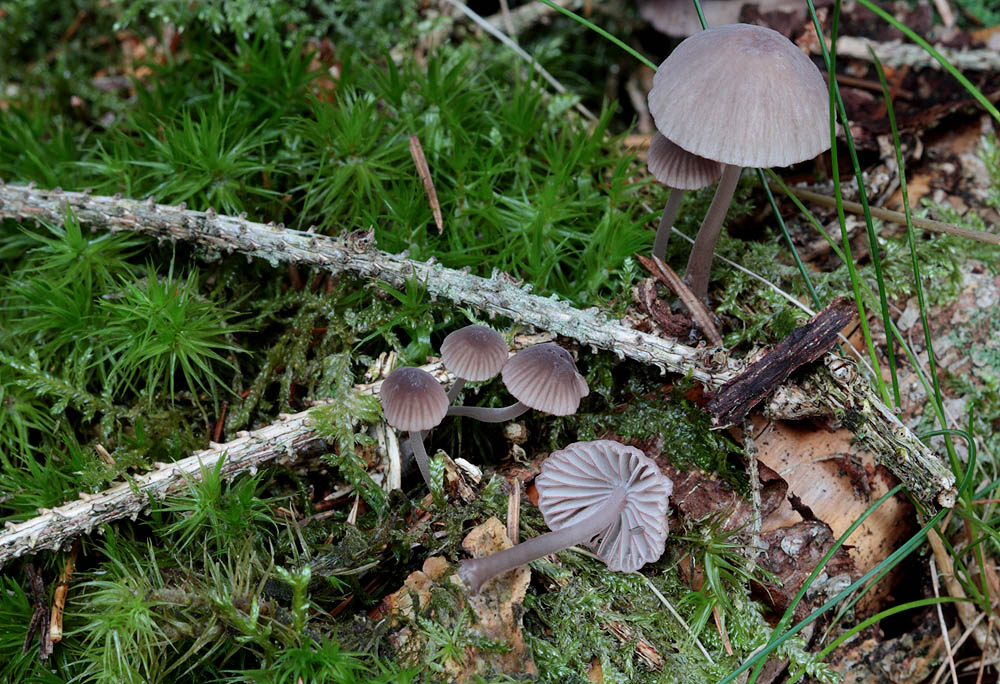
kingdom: Fungi
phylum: Basidiomycota
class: Agaricomycetes
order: Agaricales
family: Mycenaceae
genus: Mycena
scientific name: Mycena rubromarginata
